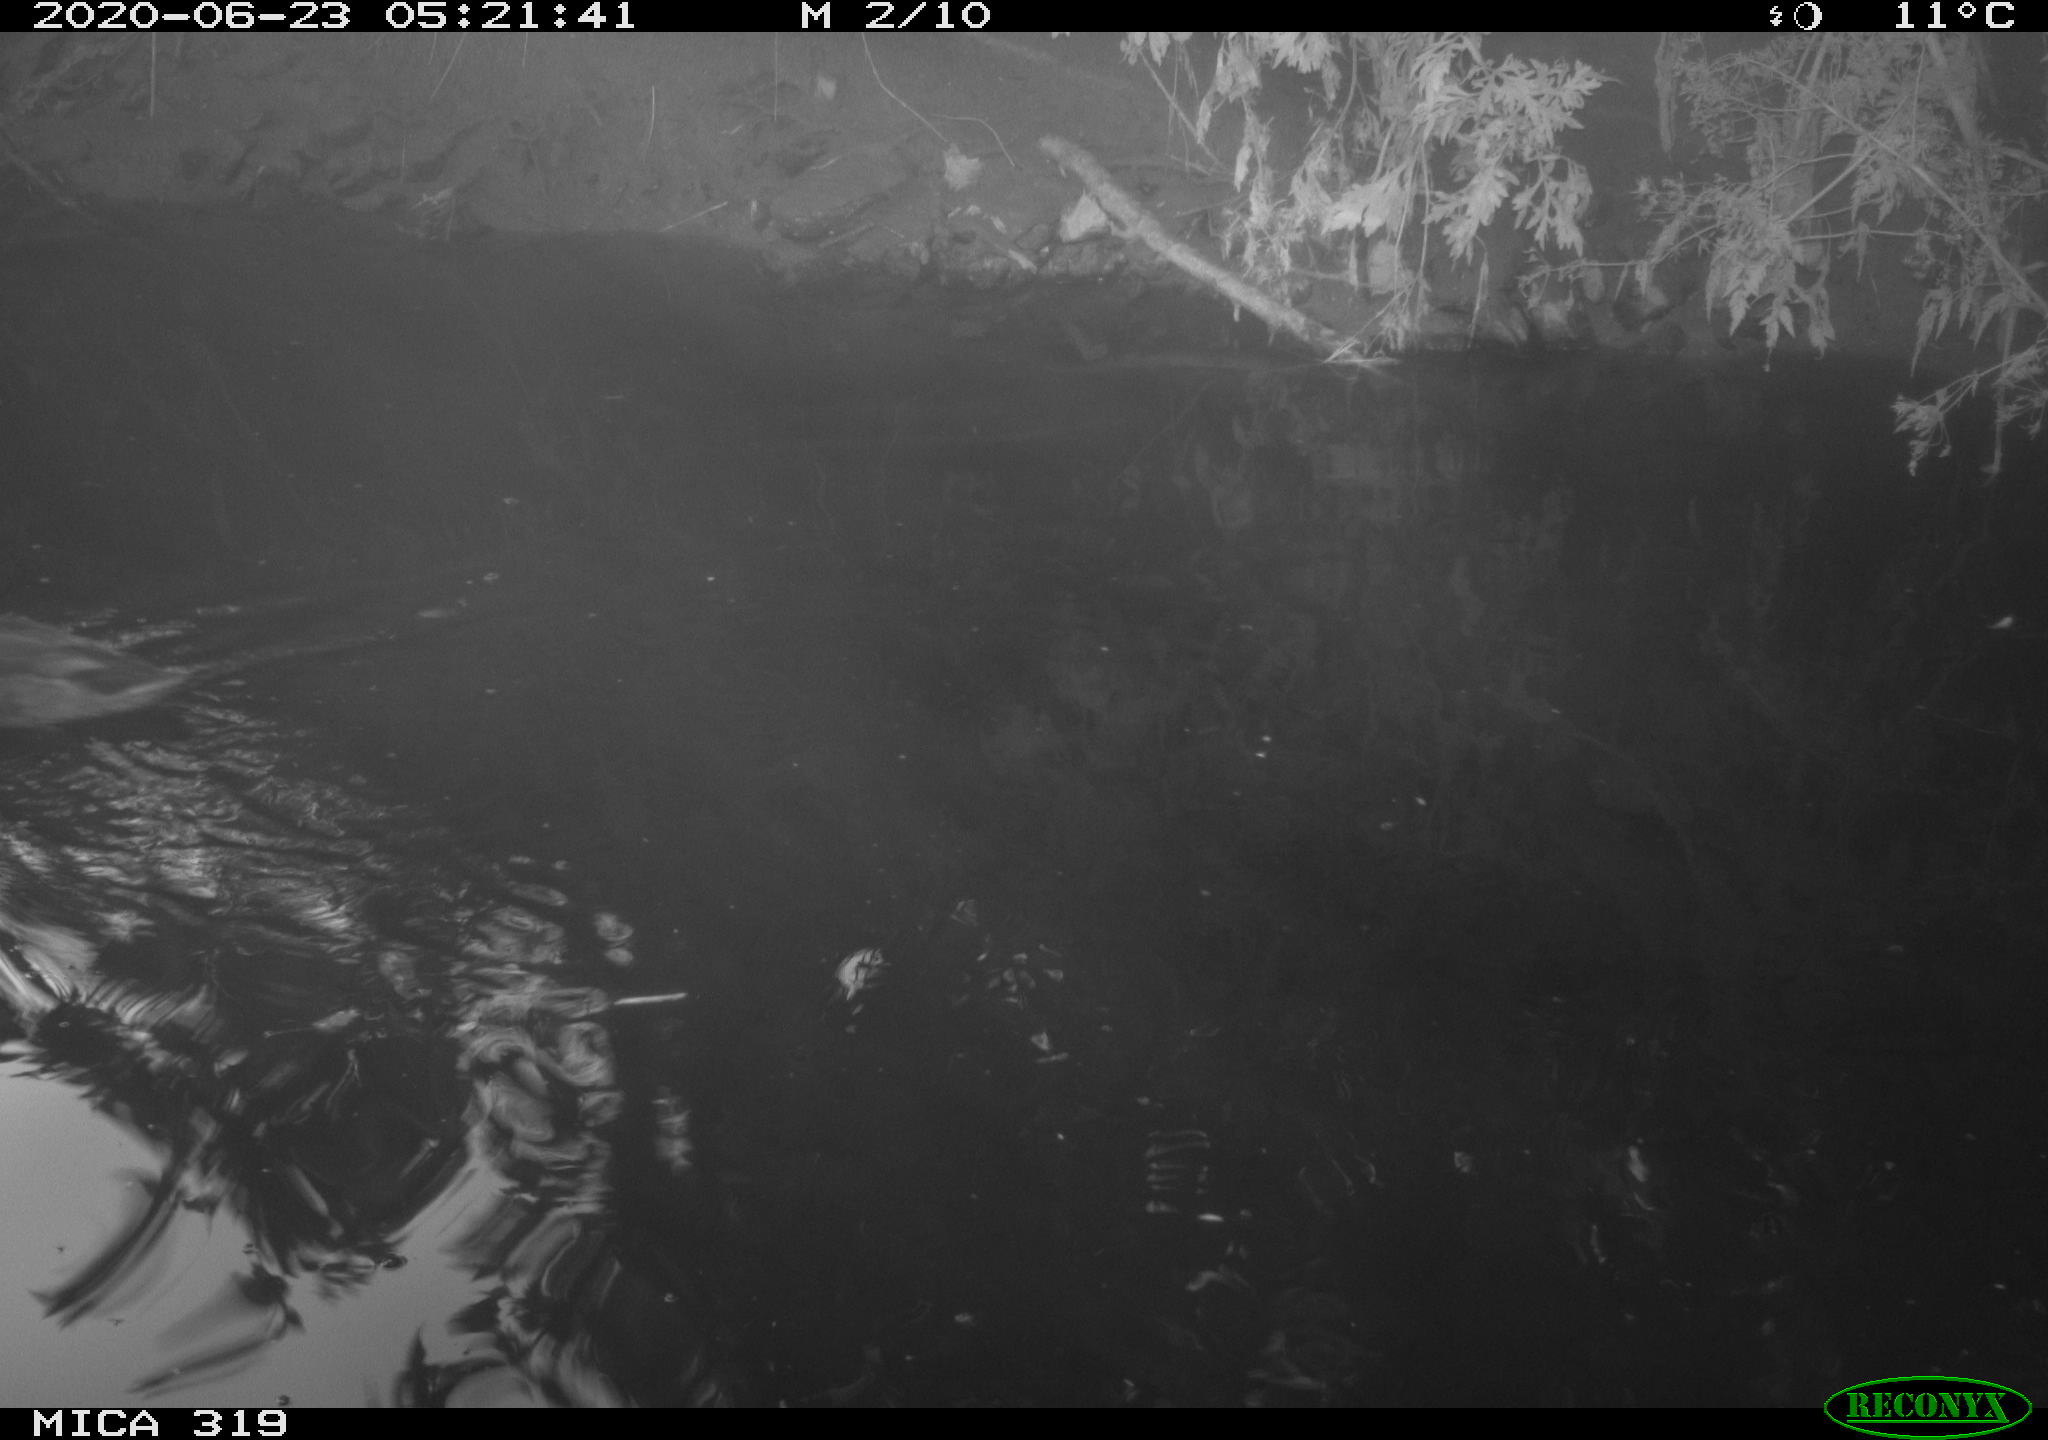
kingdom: Animalia
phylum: Chordata
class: Aves
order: Anseriformes
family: Anatidae
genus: Anas
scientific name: Anas platyrhynchos
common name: Mallard
